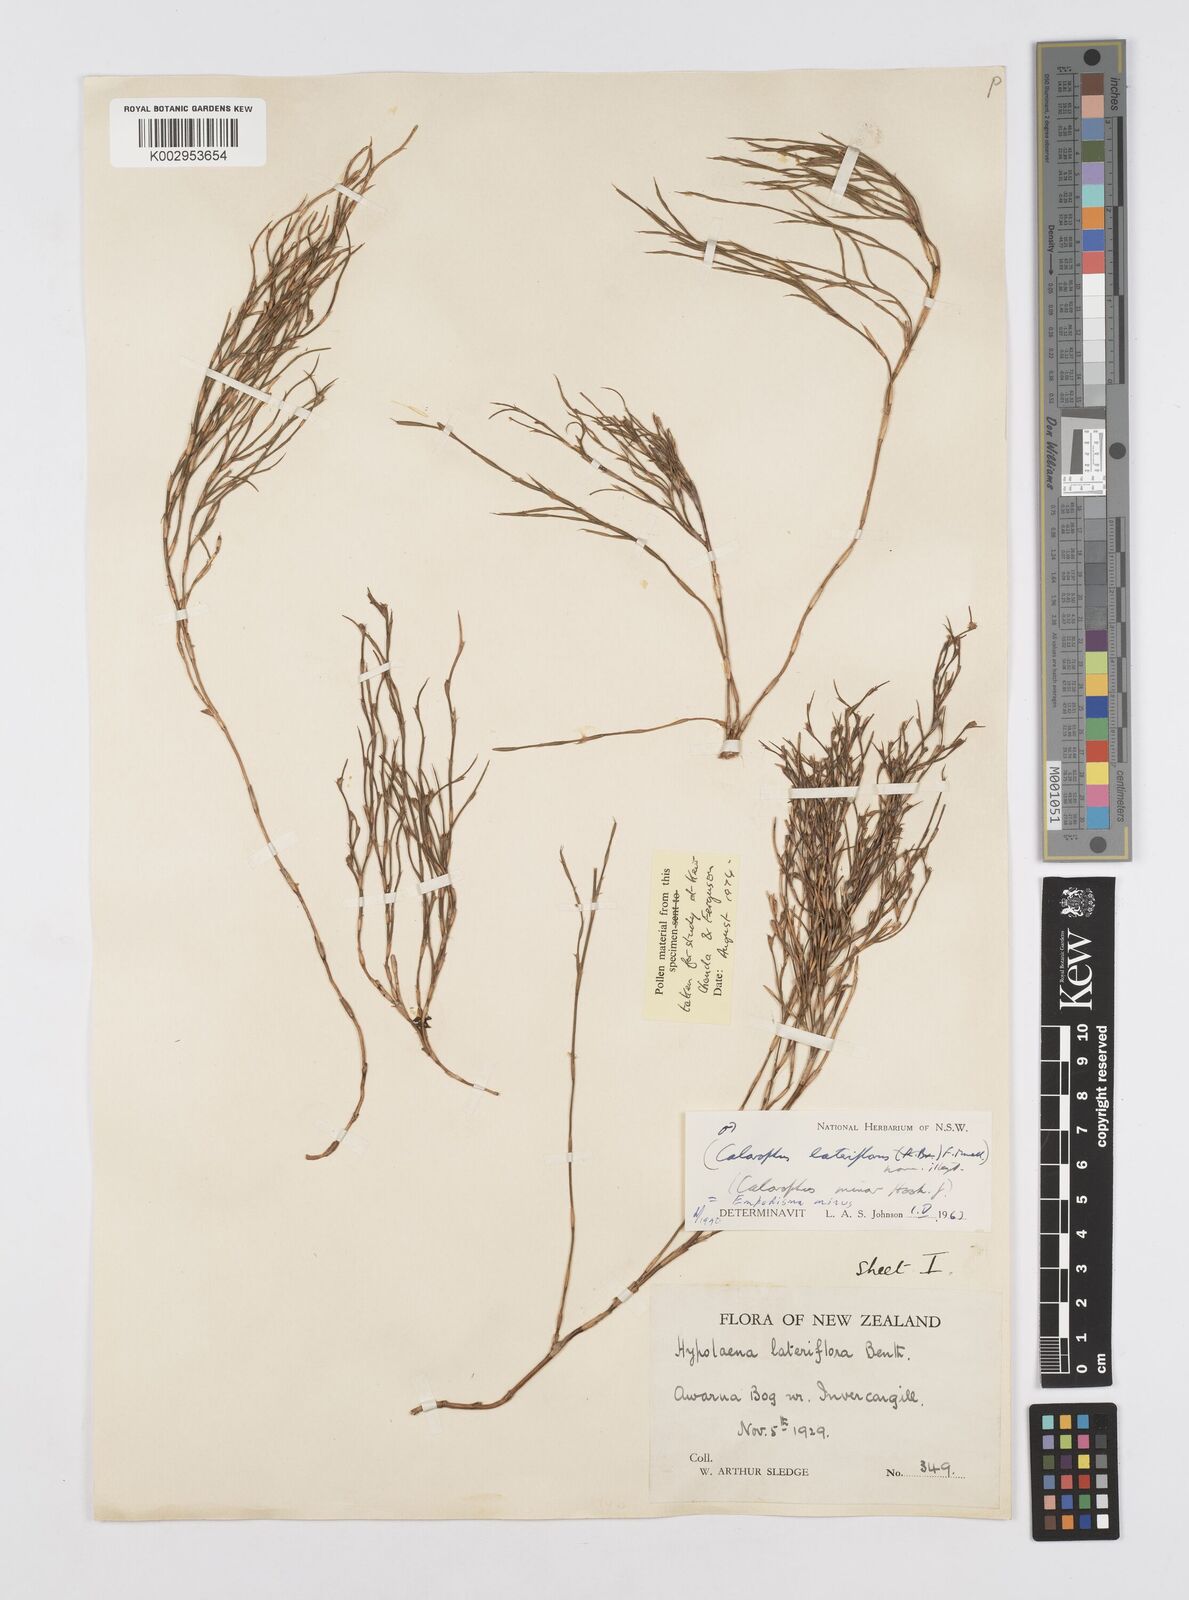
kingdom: Plantae
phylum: Tracheophyta
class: Liliopsida
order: Poales
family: Restionaceae
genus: Empodisma
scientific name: Empodisma minus
